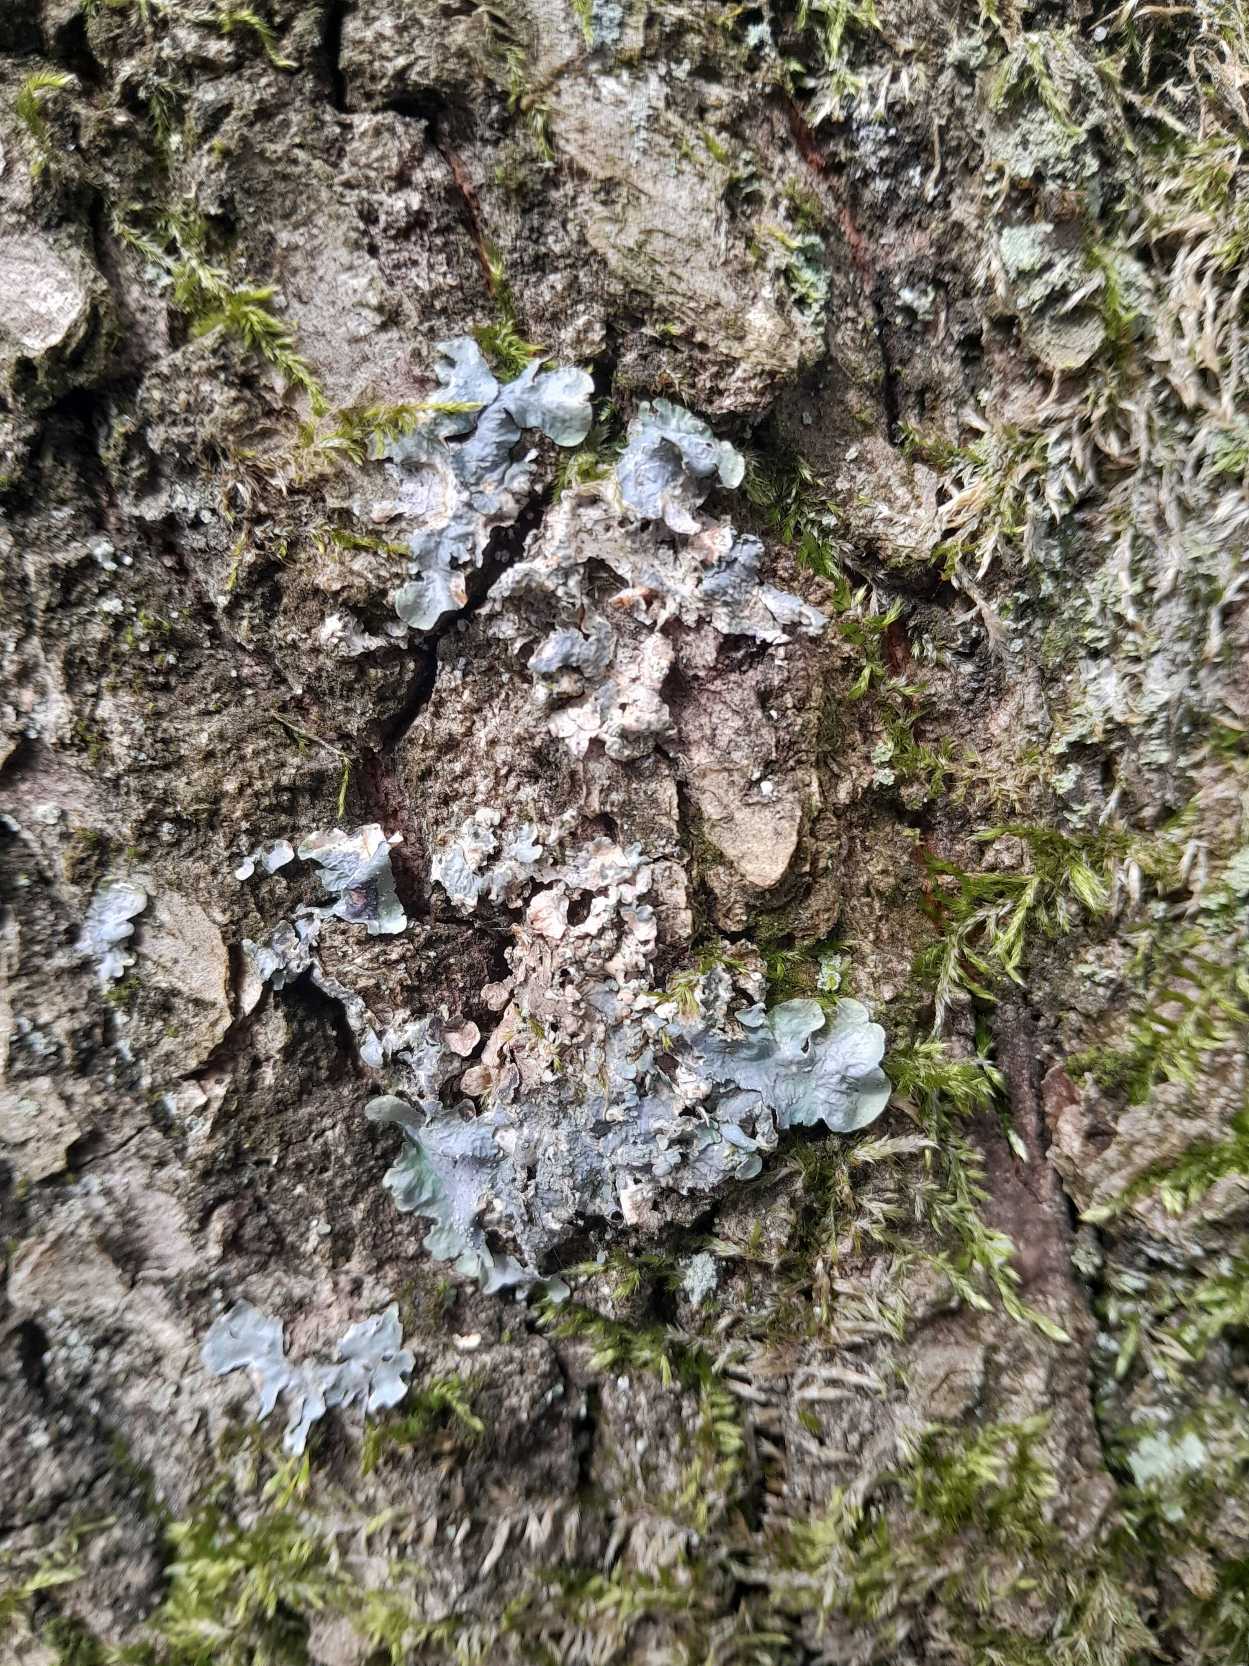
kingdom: Fungi
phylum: Ascomycota
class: Lecanoromycetes
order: Ostropales
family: Phlyctidaceae
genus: Phlyctis
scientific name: Phlyctis argena
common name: Almindelig sølvlav
